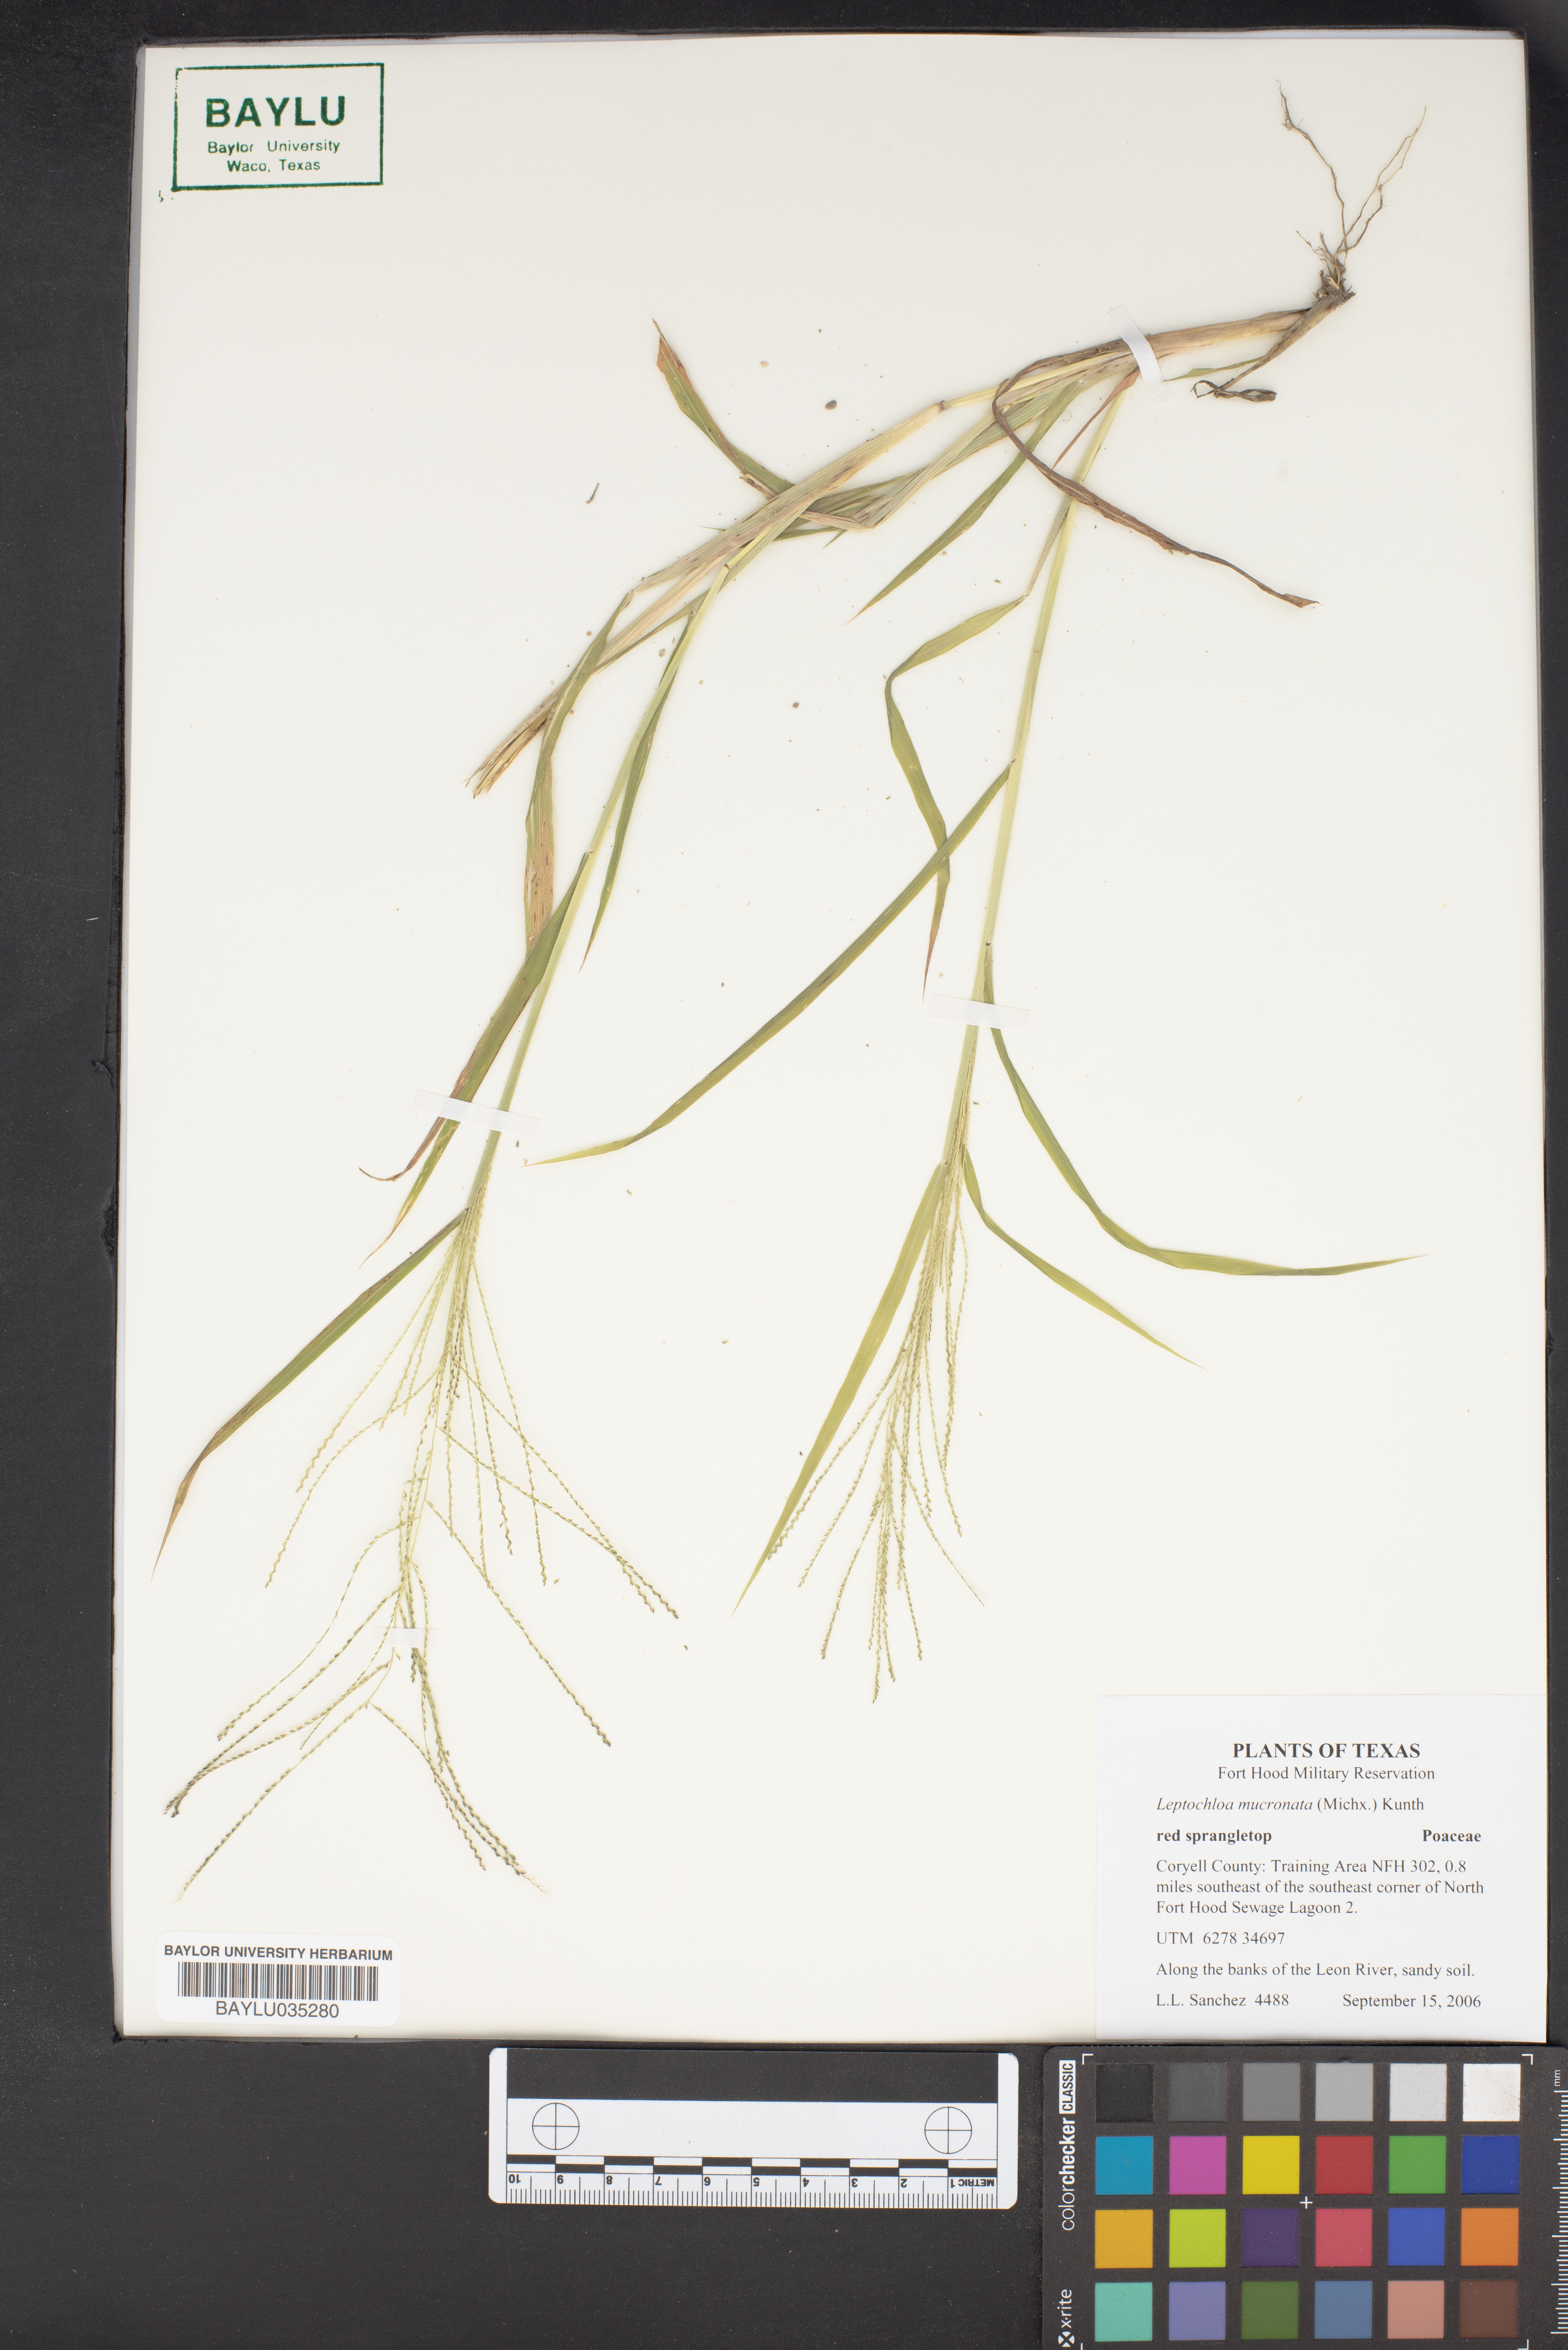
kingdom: Plantae
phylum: Tracheophyta
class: Liliopsida
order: Poales
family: Poaceae
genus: Leptochloa
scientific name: Leptochloa mucronata
